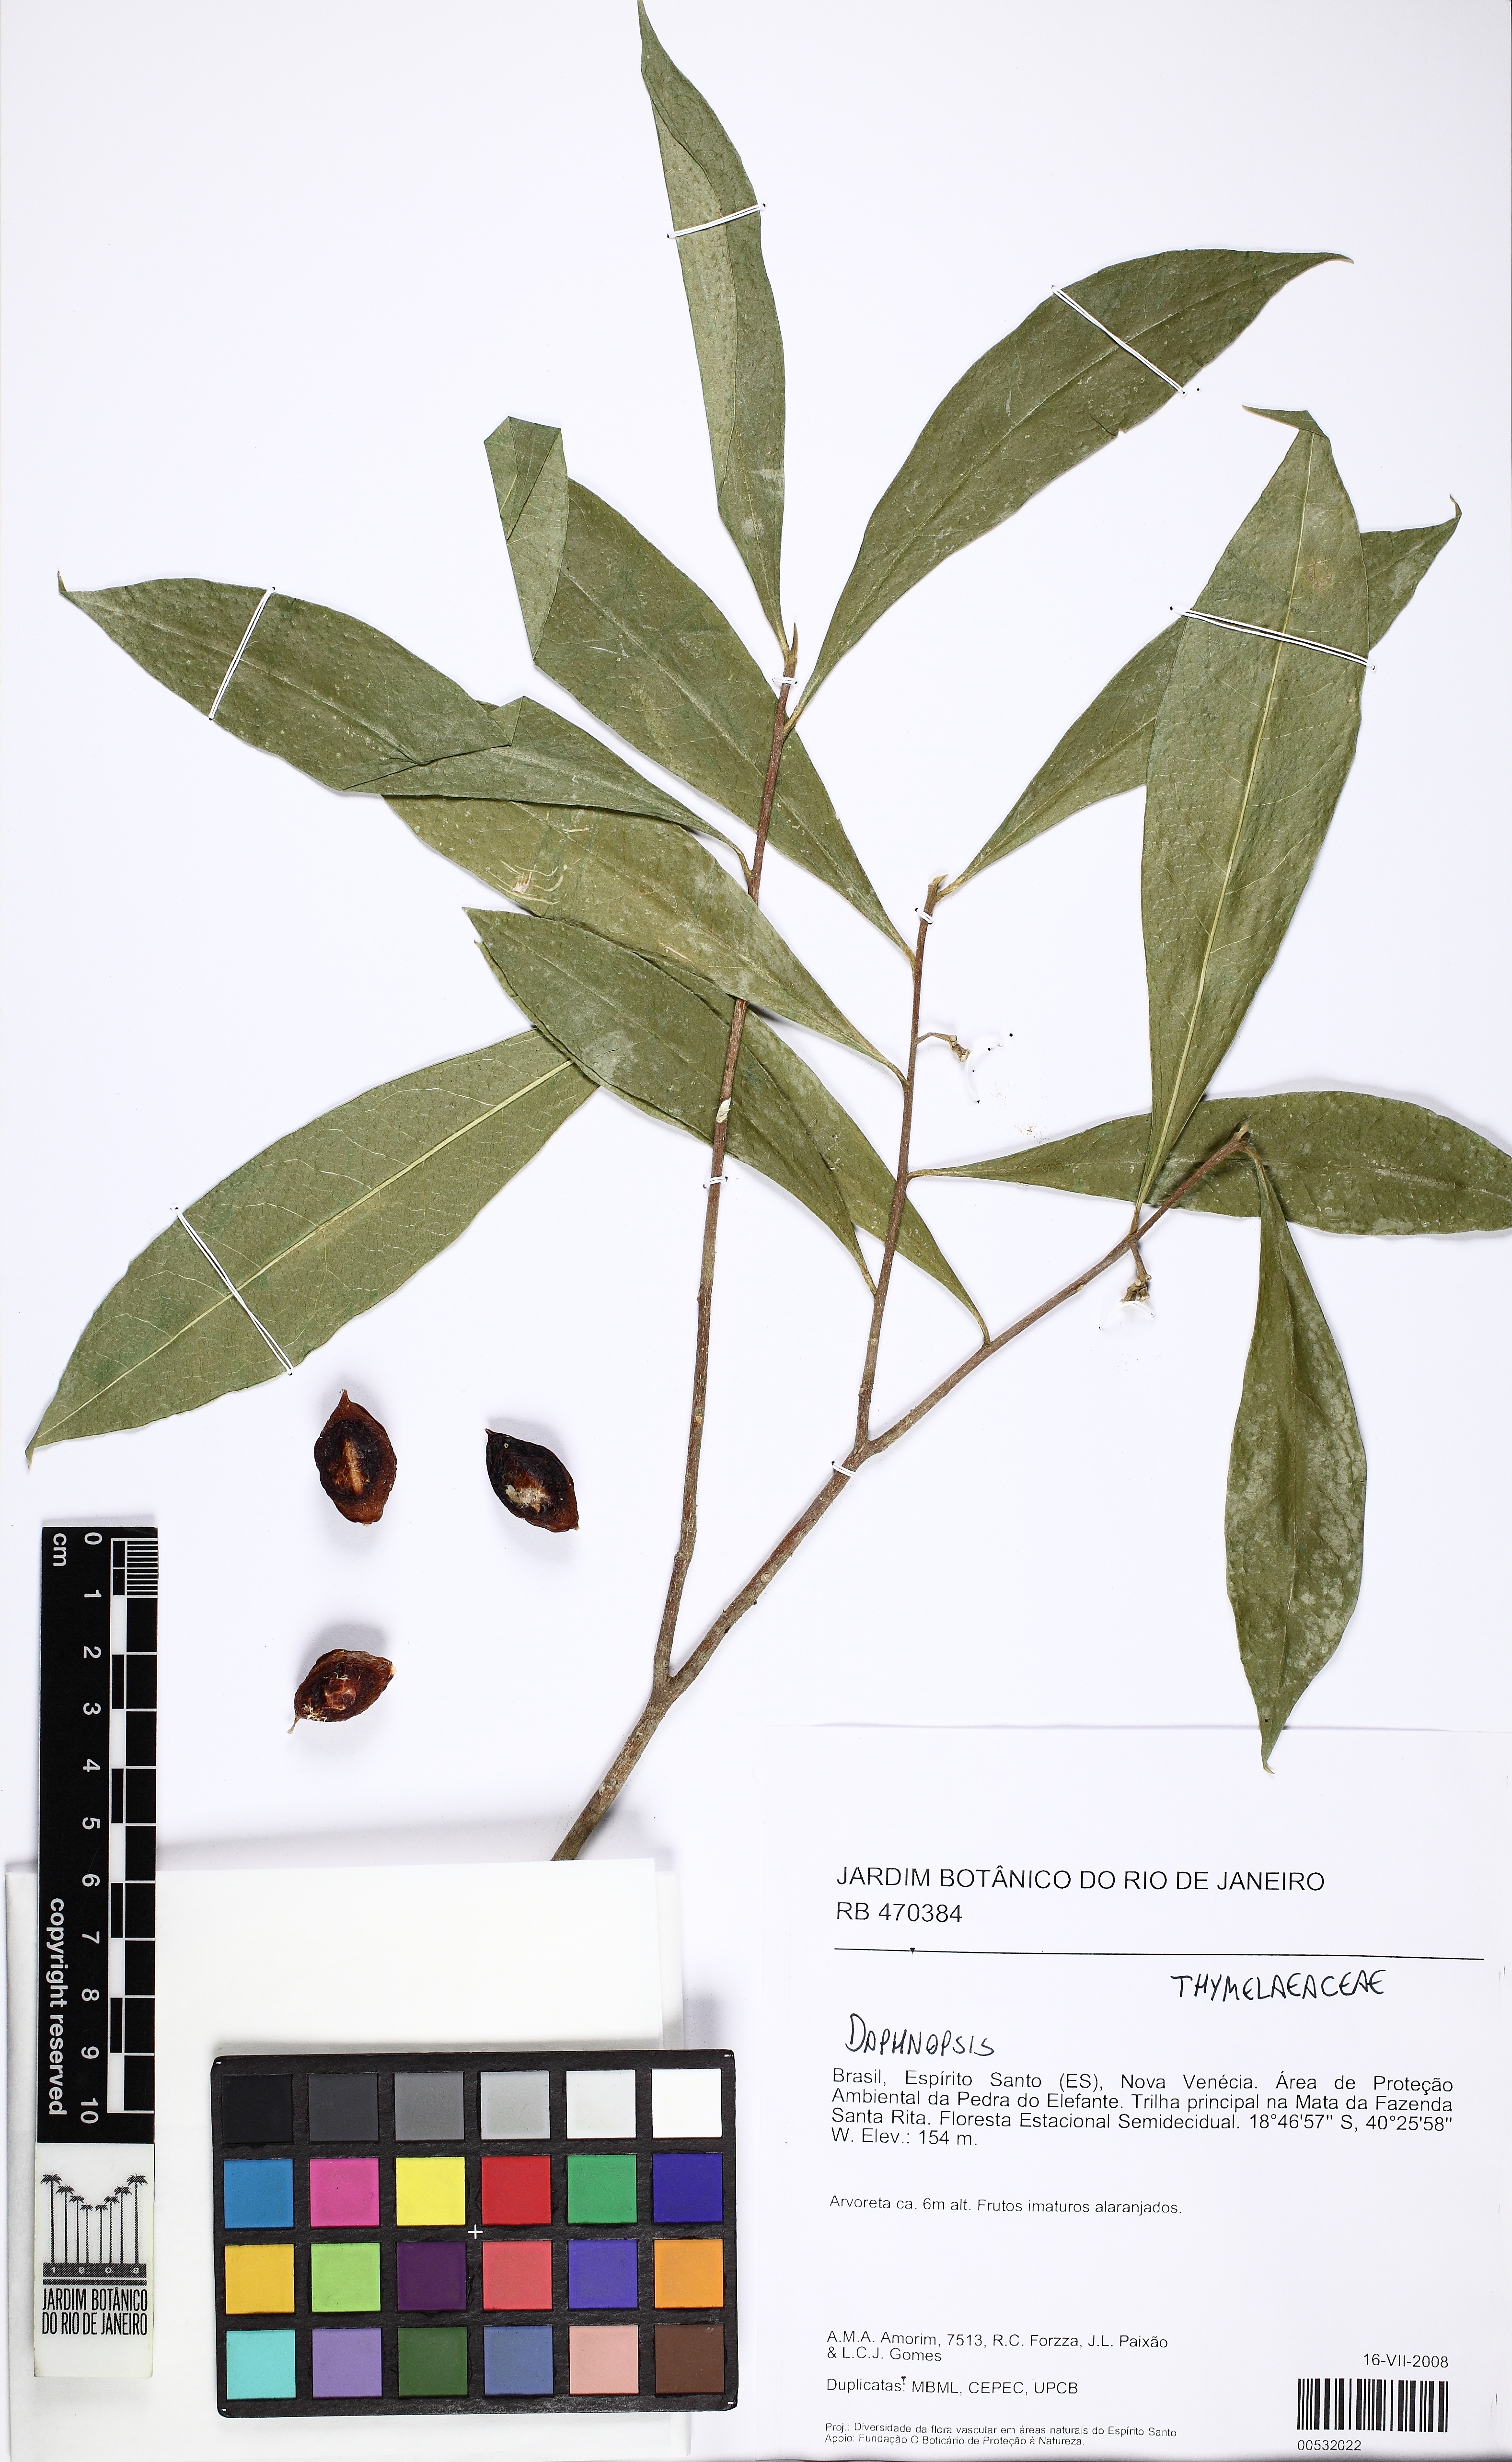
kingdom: Plantae
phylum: Tracheophyta
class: Magnoliopsida
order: Malvales
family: Thymelaeaceae
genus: Daphnopsis
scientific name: Daphnopsis
